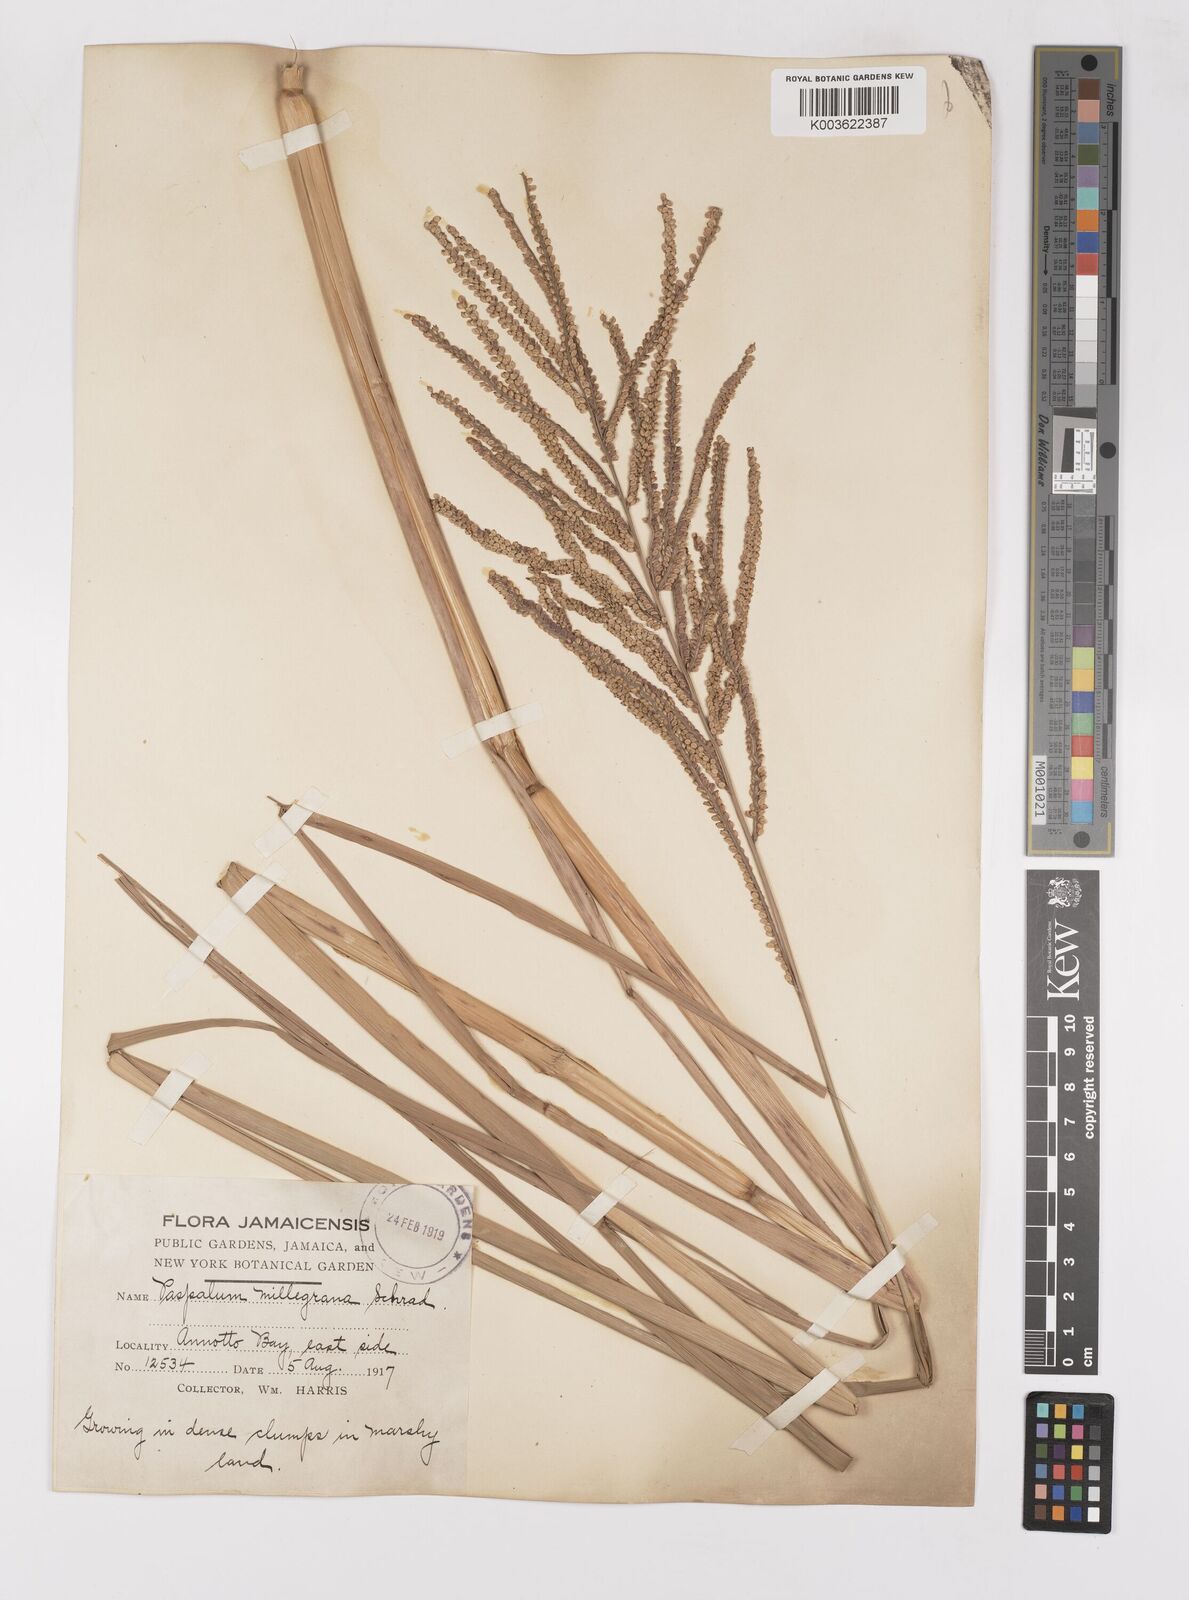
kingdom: Plantae
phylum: Tracheophyta
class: Liliopsida
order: Poales
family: Poaceae
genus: Paspalum
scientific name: Paspalum millegranum
